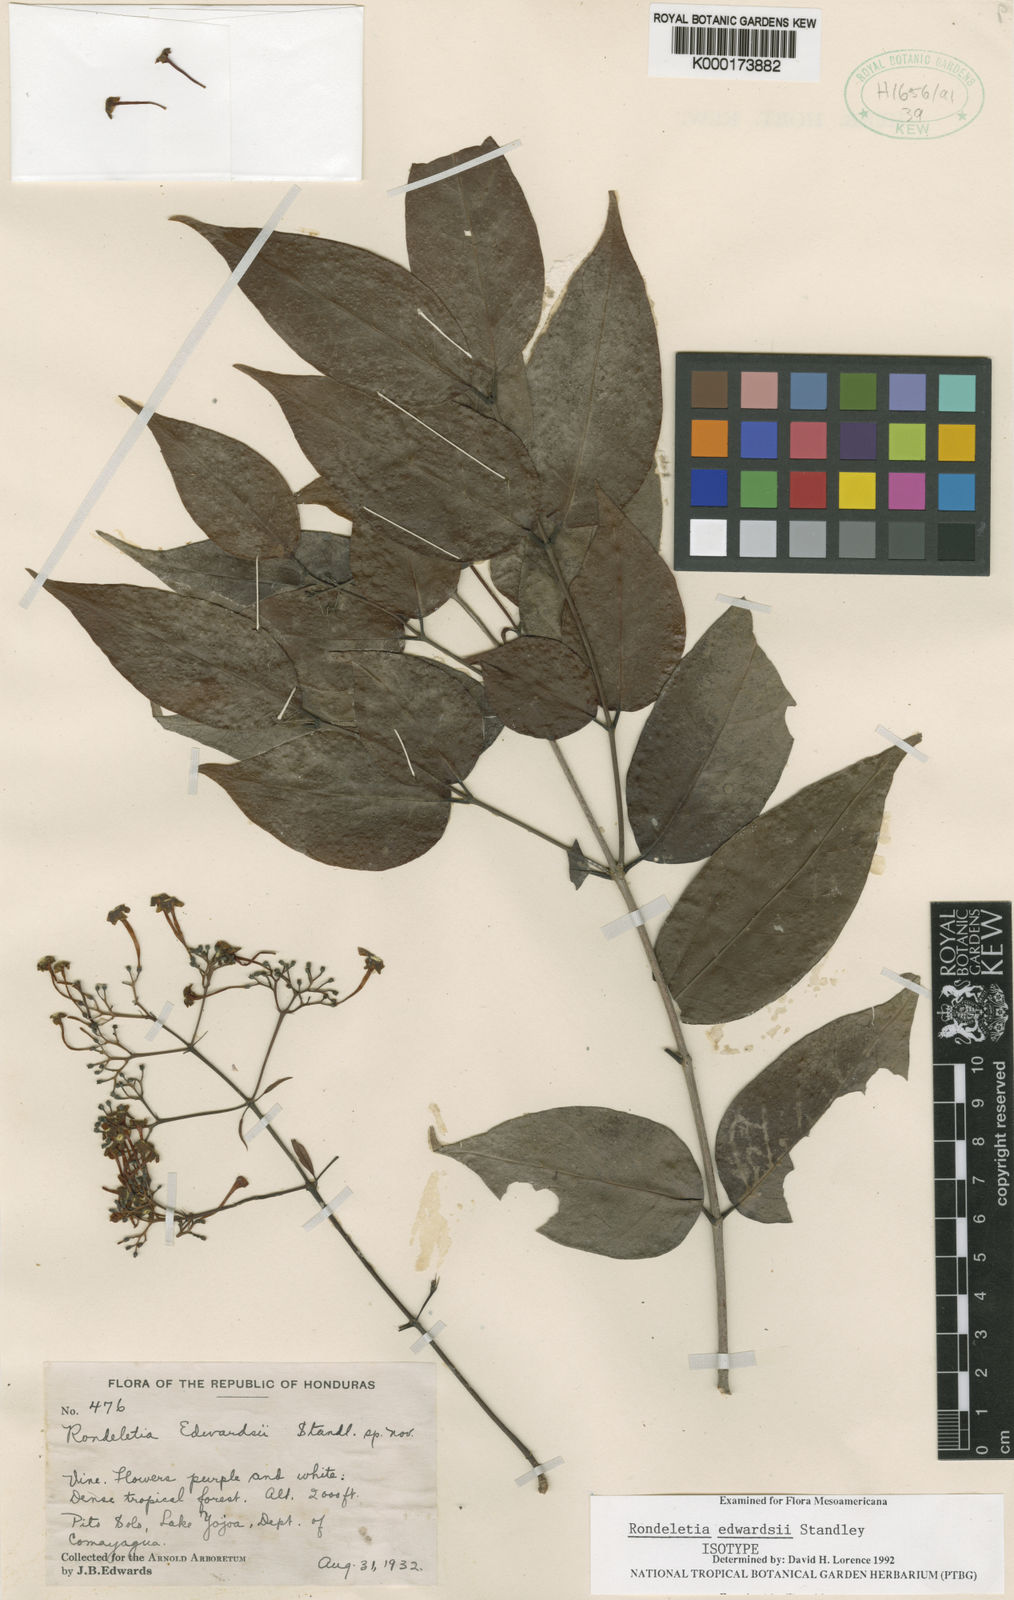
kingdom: Plantae
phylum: Tracheophyta
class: Magnoliopsida
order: Gentianales
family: Rubiaceae
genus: Rogiera
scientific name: Rogiera edwardsii
